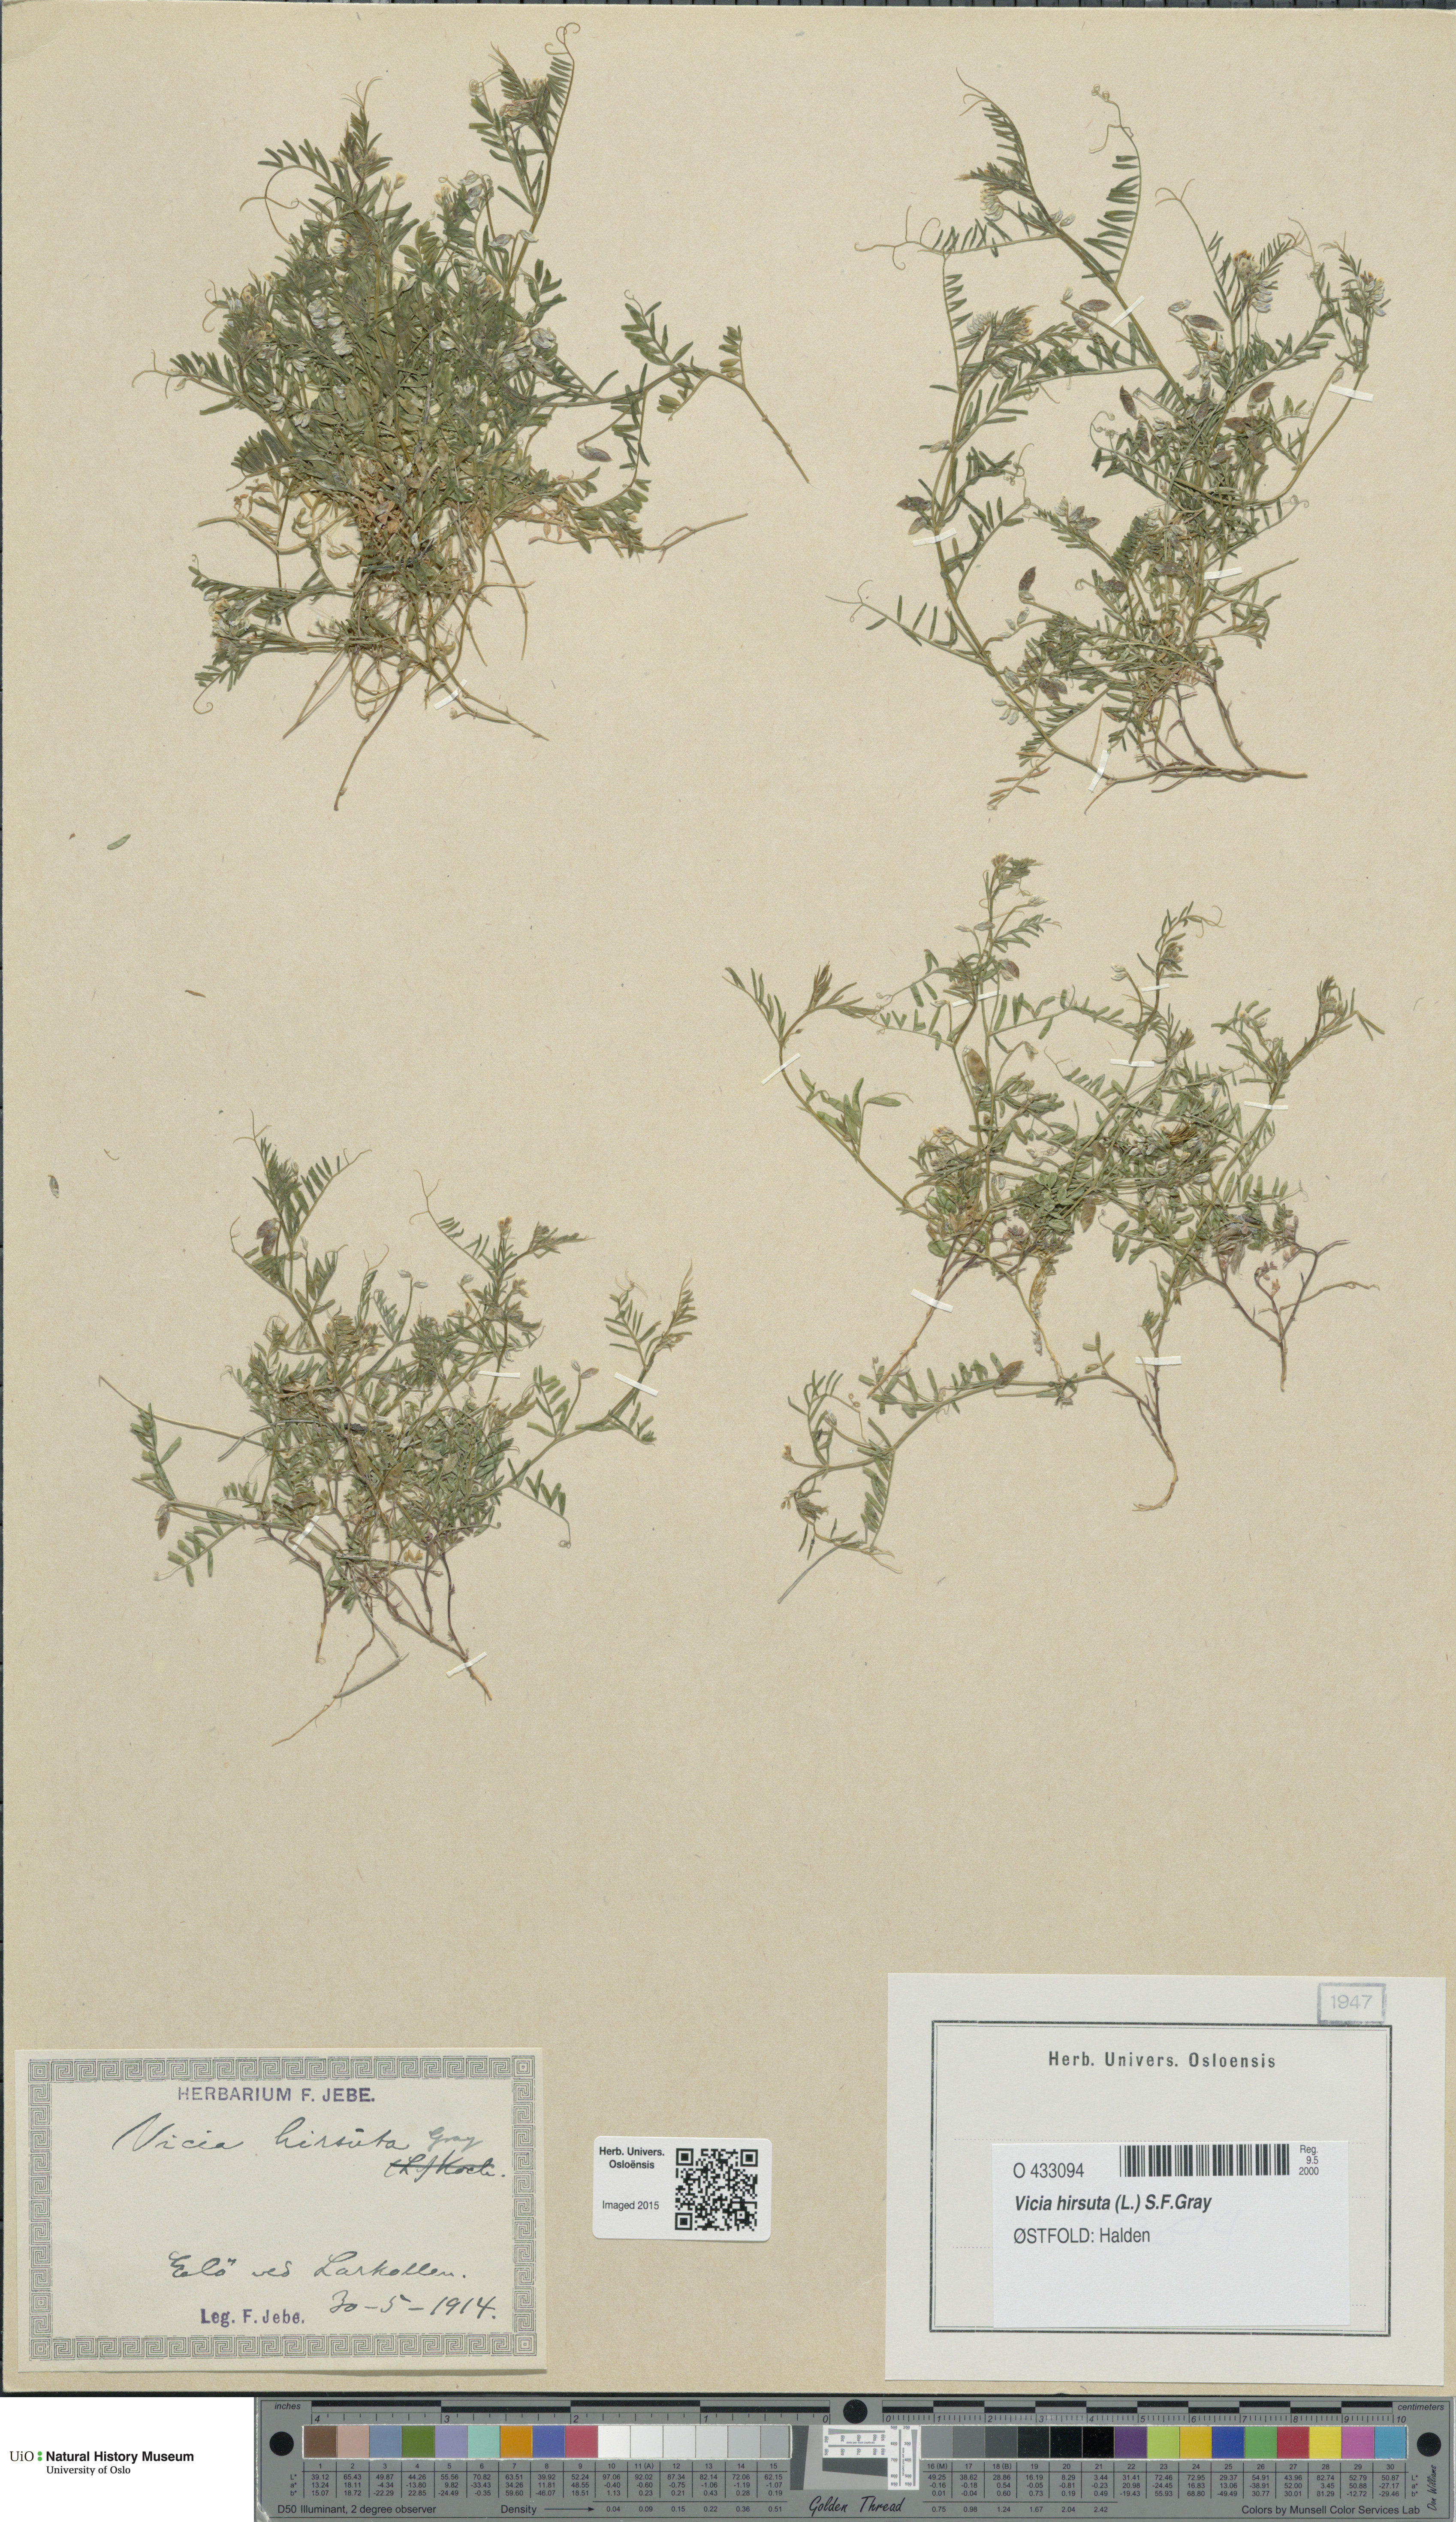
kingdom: Plantae
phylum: Tracheophyta
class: Magnoliopsida
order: Fabales
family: Fabaceae
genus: Vicia
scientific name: Vicia hirsuta
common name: Tiny vetch
